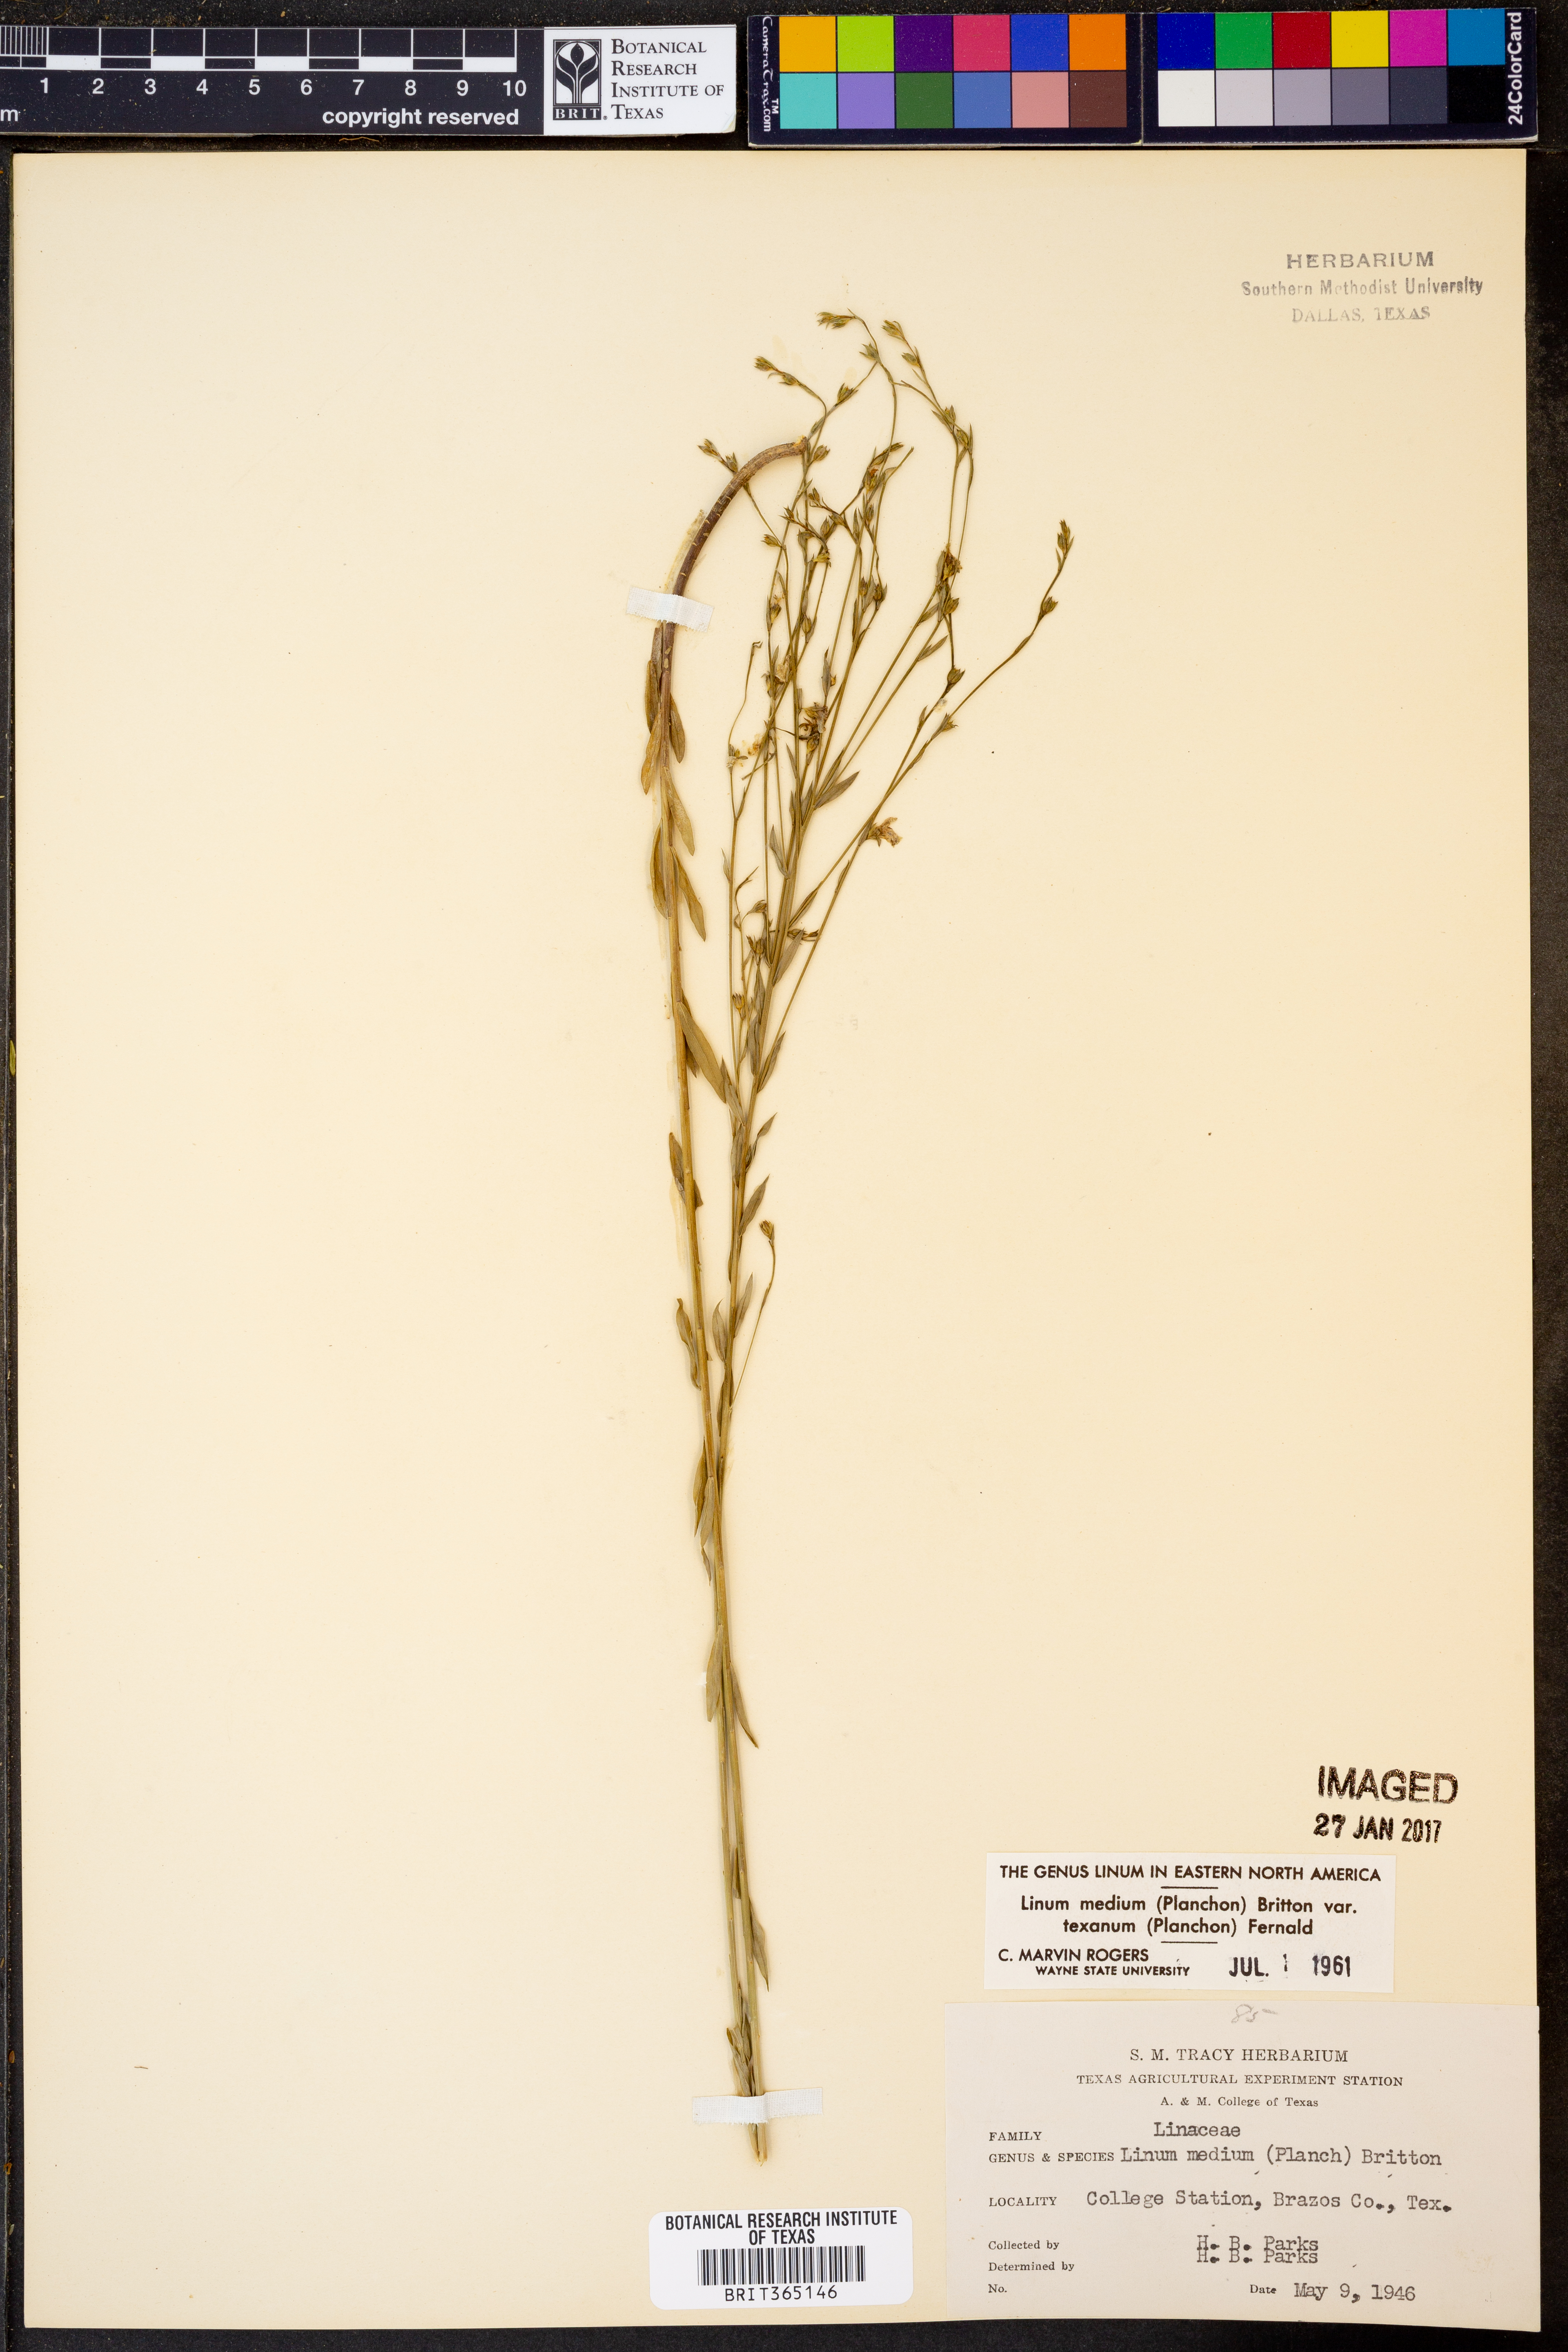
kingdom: Plantae
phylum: Tracheophyta
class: Magnoliopsida
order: Malpighiales
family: Linaceae
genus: Linum
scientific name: Linum medium
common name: Stiff yellow flax
